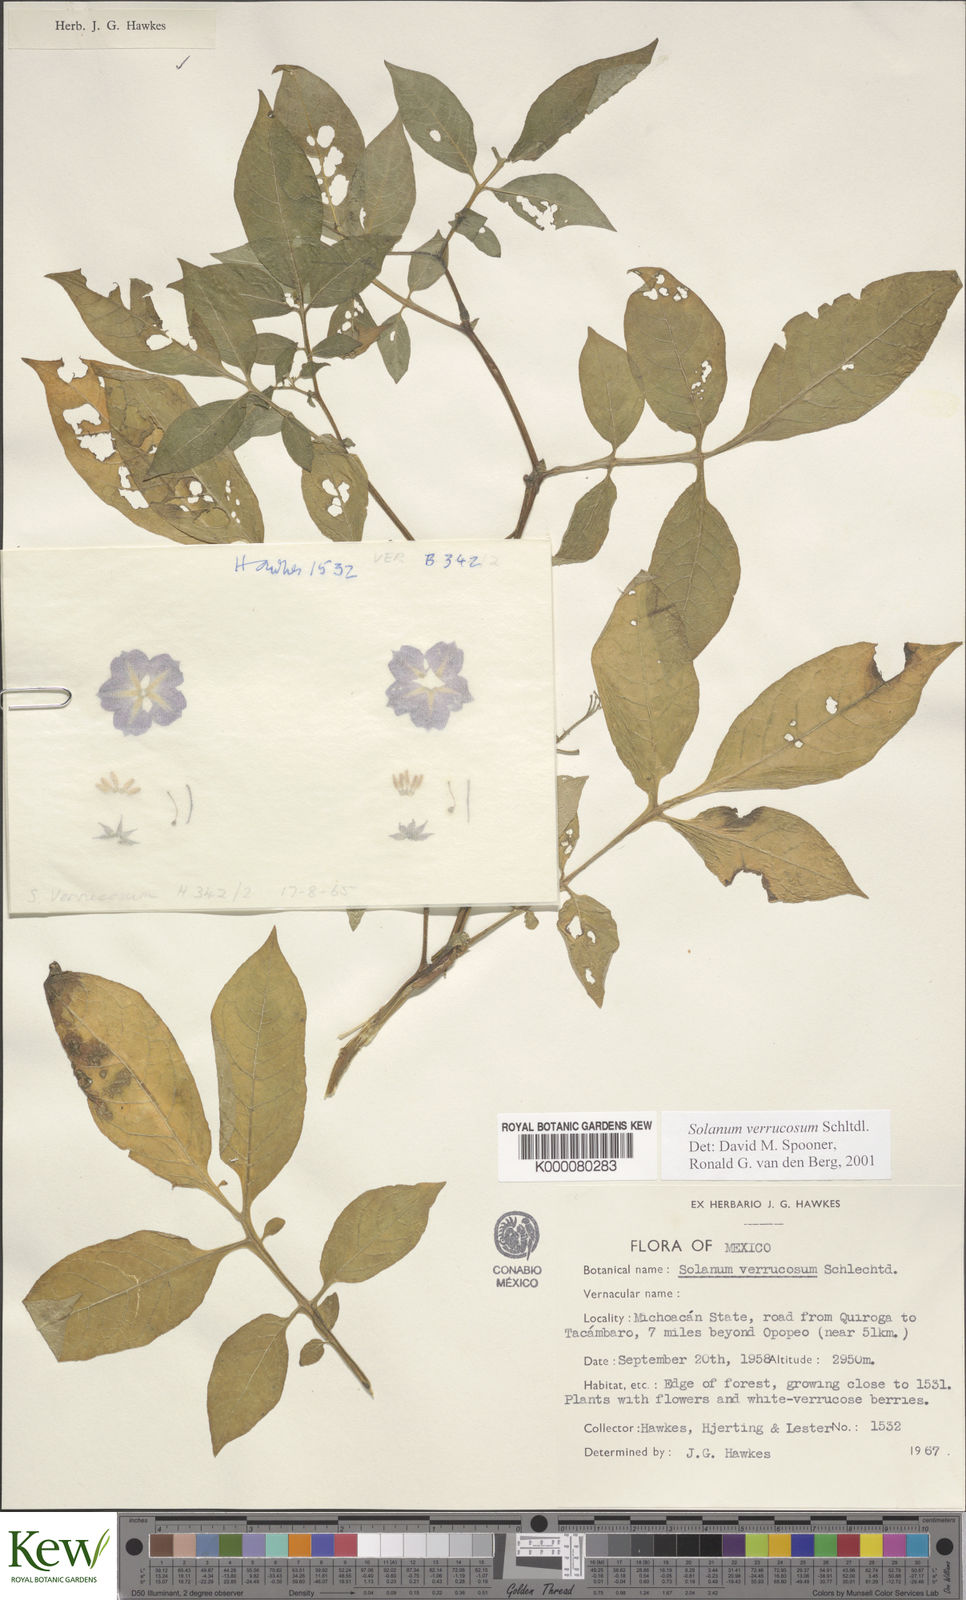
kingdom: Plantae
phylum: Tracheophyta
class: Magnoliopsida
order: Solanales
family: Solanaceae
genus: Solanum
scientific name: Solanum verrucosum
